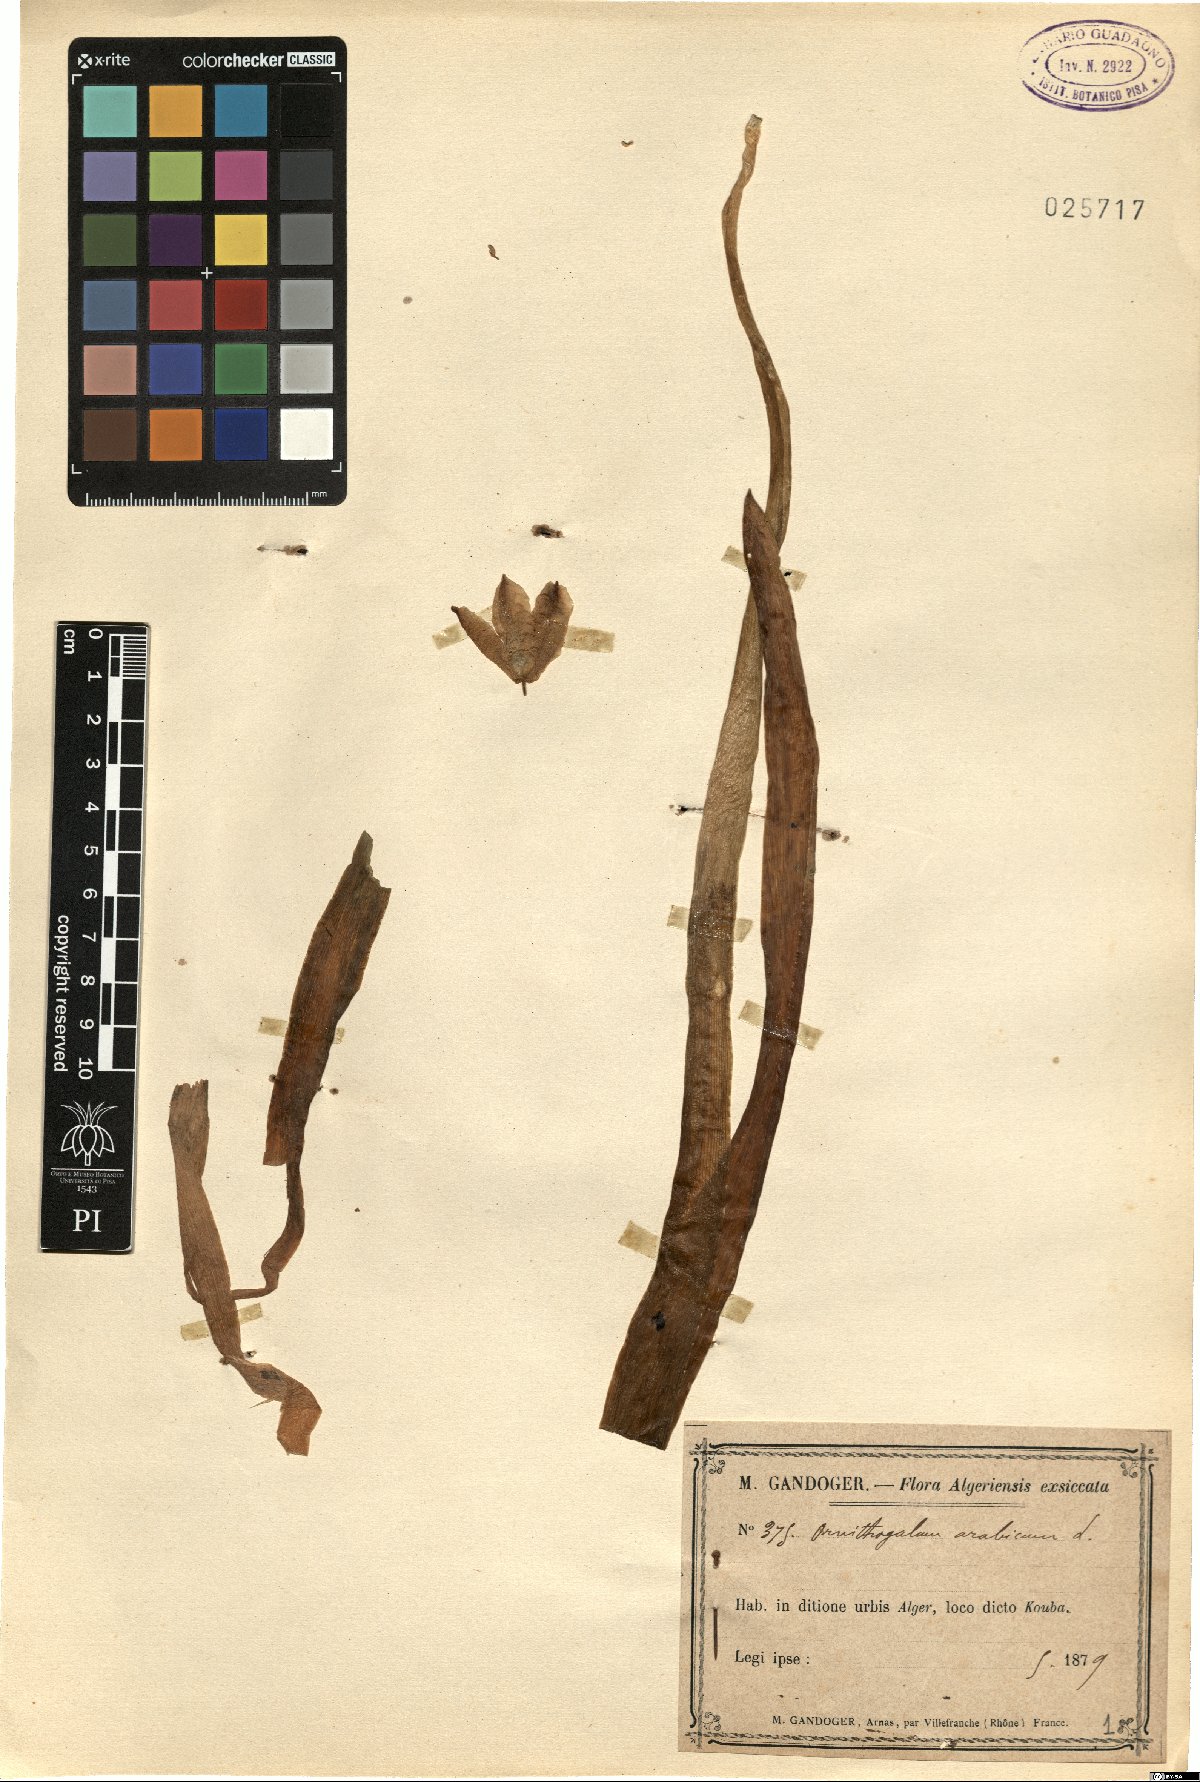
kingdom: Plantae
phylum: Tracheophyta
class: Liliopsida
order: Asparagales
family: Asparagaceae
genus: Ornithogalum
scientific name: Ornithogalum arabicum
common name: Arabian starflower
